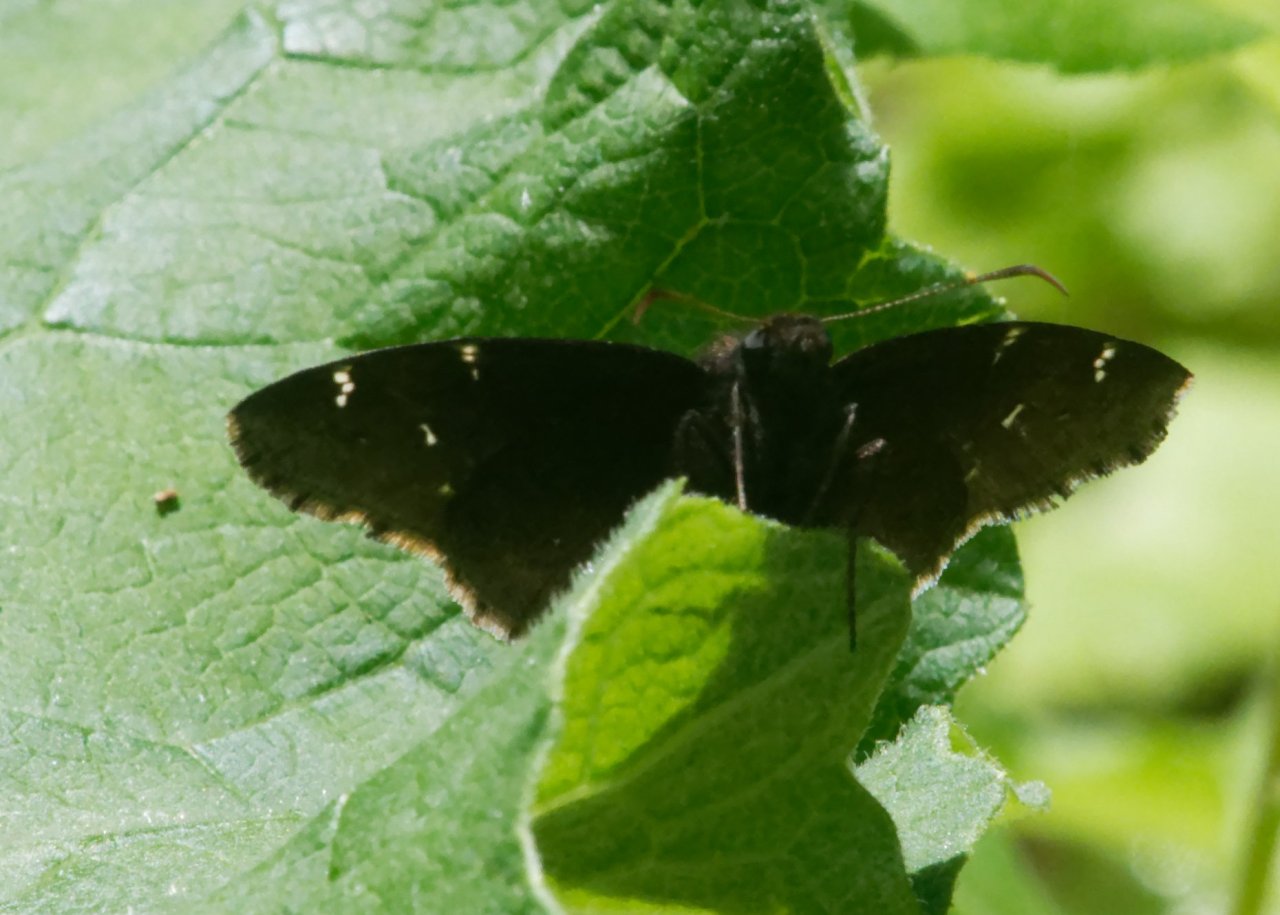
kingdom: Animalia
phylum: Arthropoda
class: Insecta
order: Lepidoptera
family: Hesperiidae
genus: Autochton
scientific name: Autochton
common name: Northern Cloudywing
